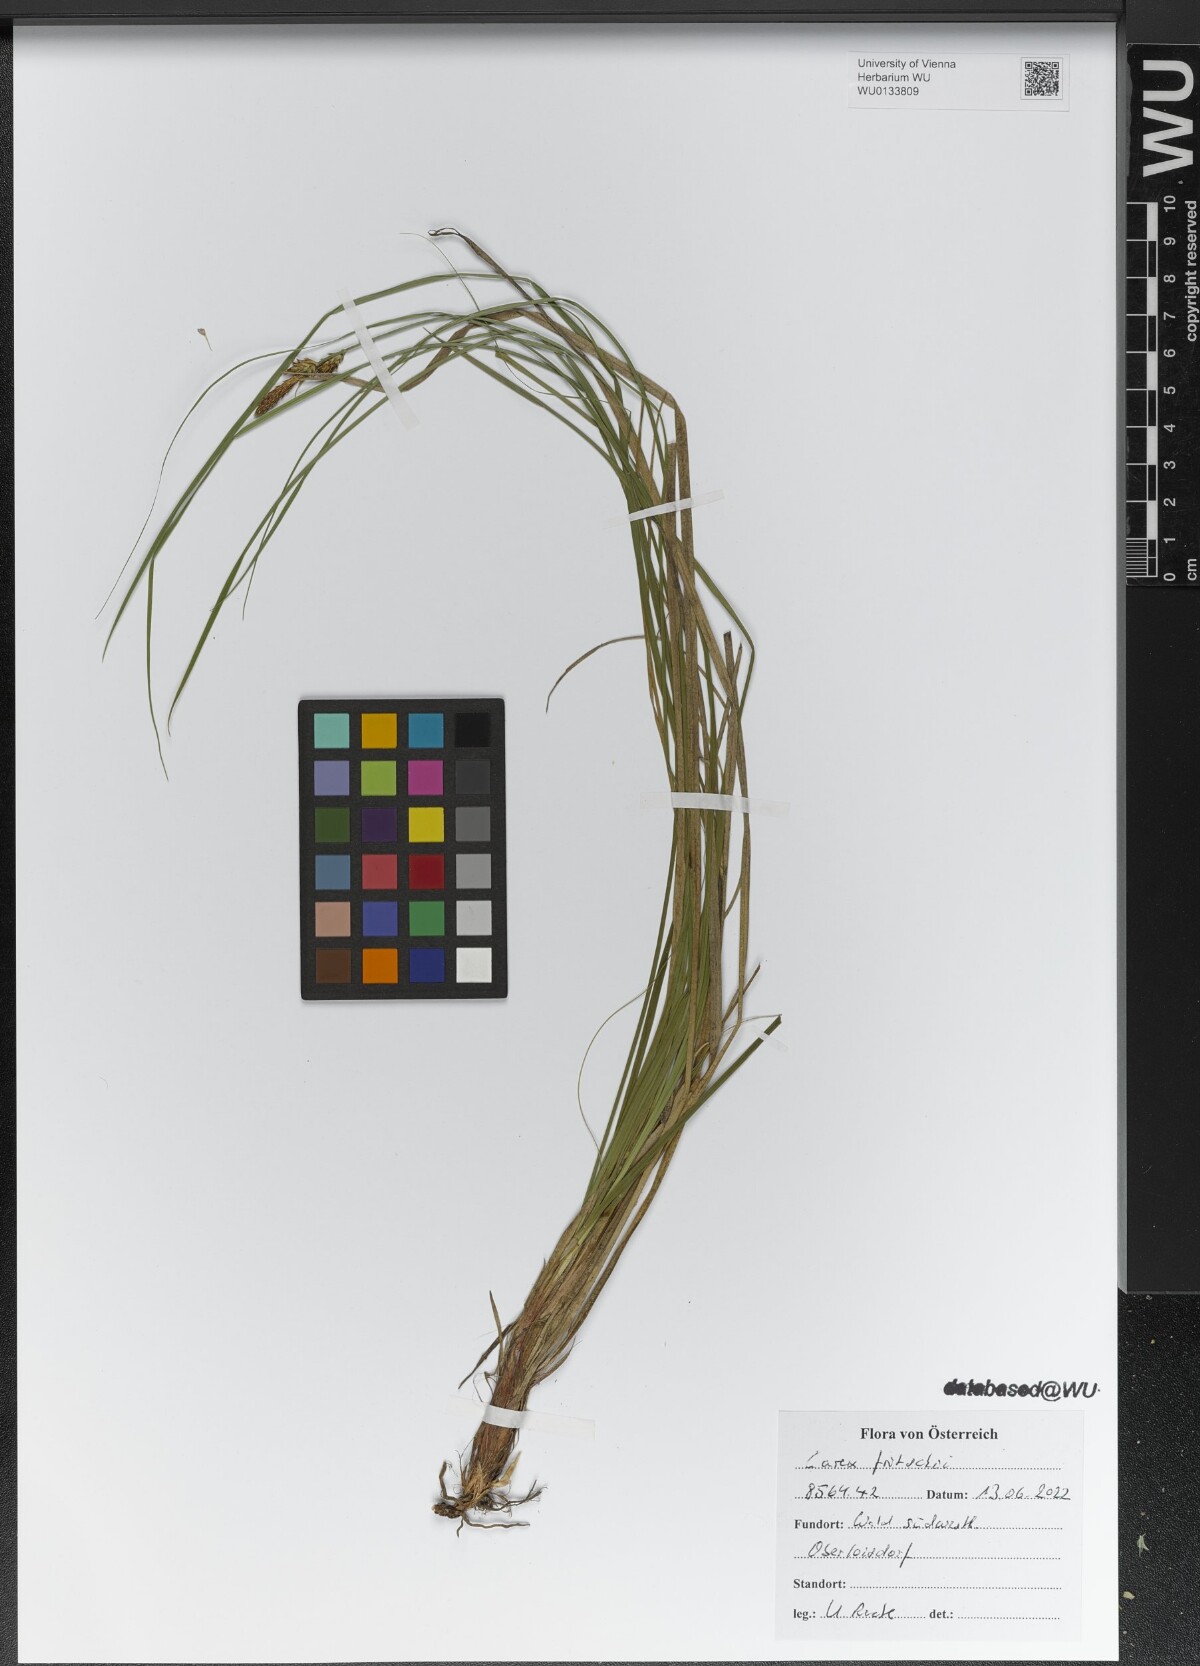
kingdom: Plantae
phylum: Tracheophyta
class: Liliopsida
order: Poales
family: Cyperaceae
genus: Carex
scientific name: Carex fritschii
